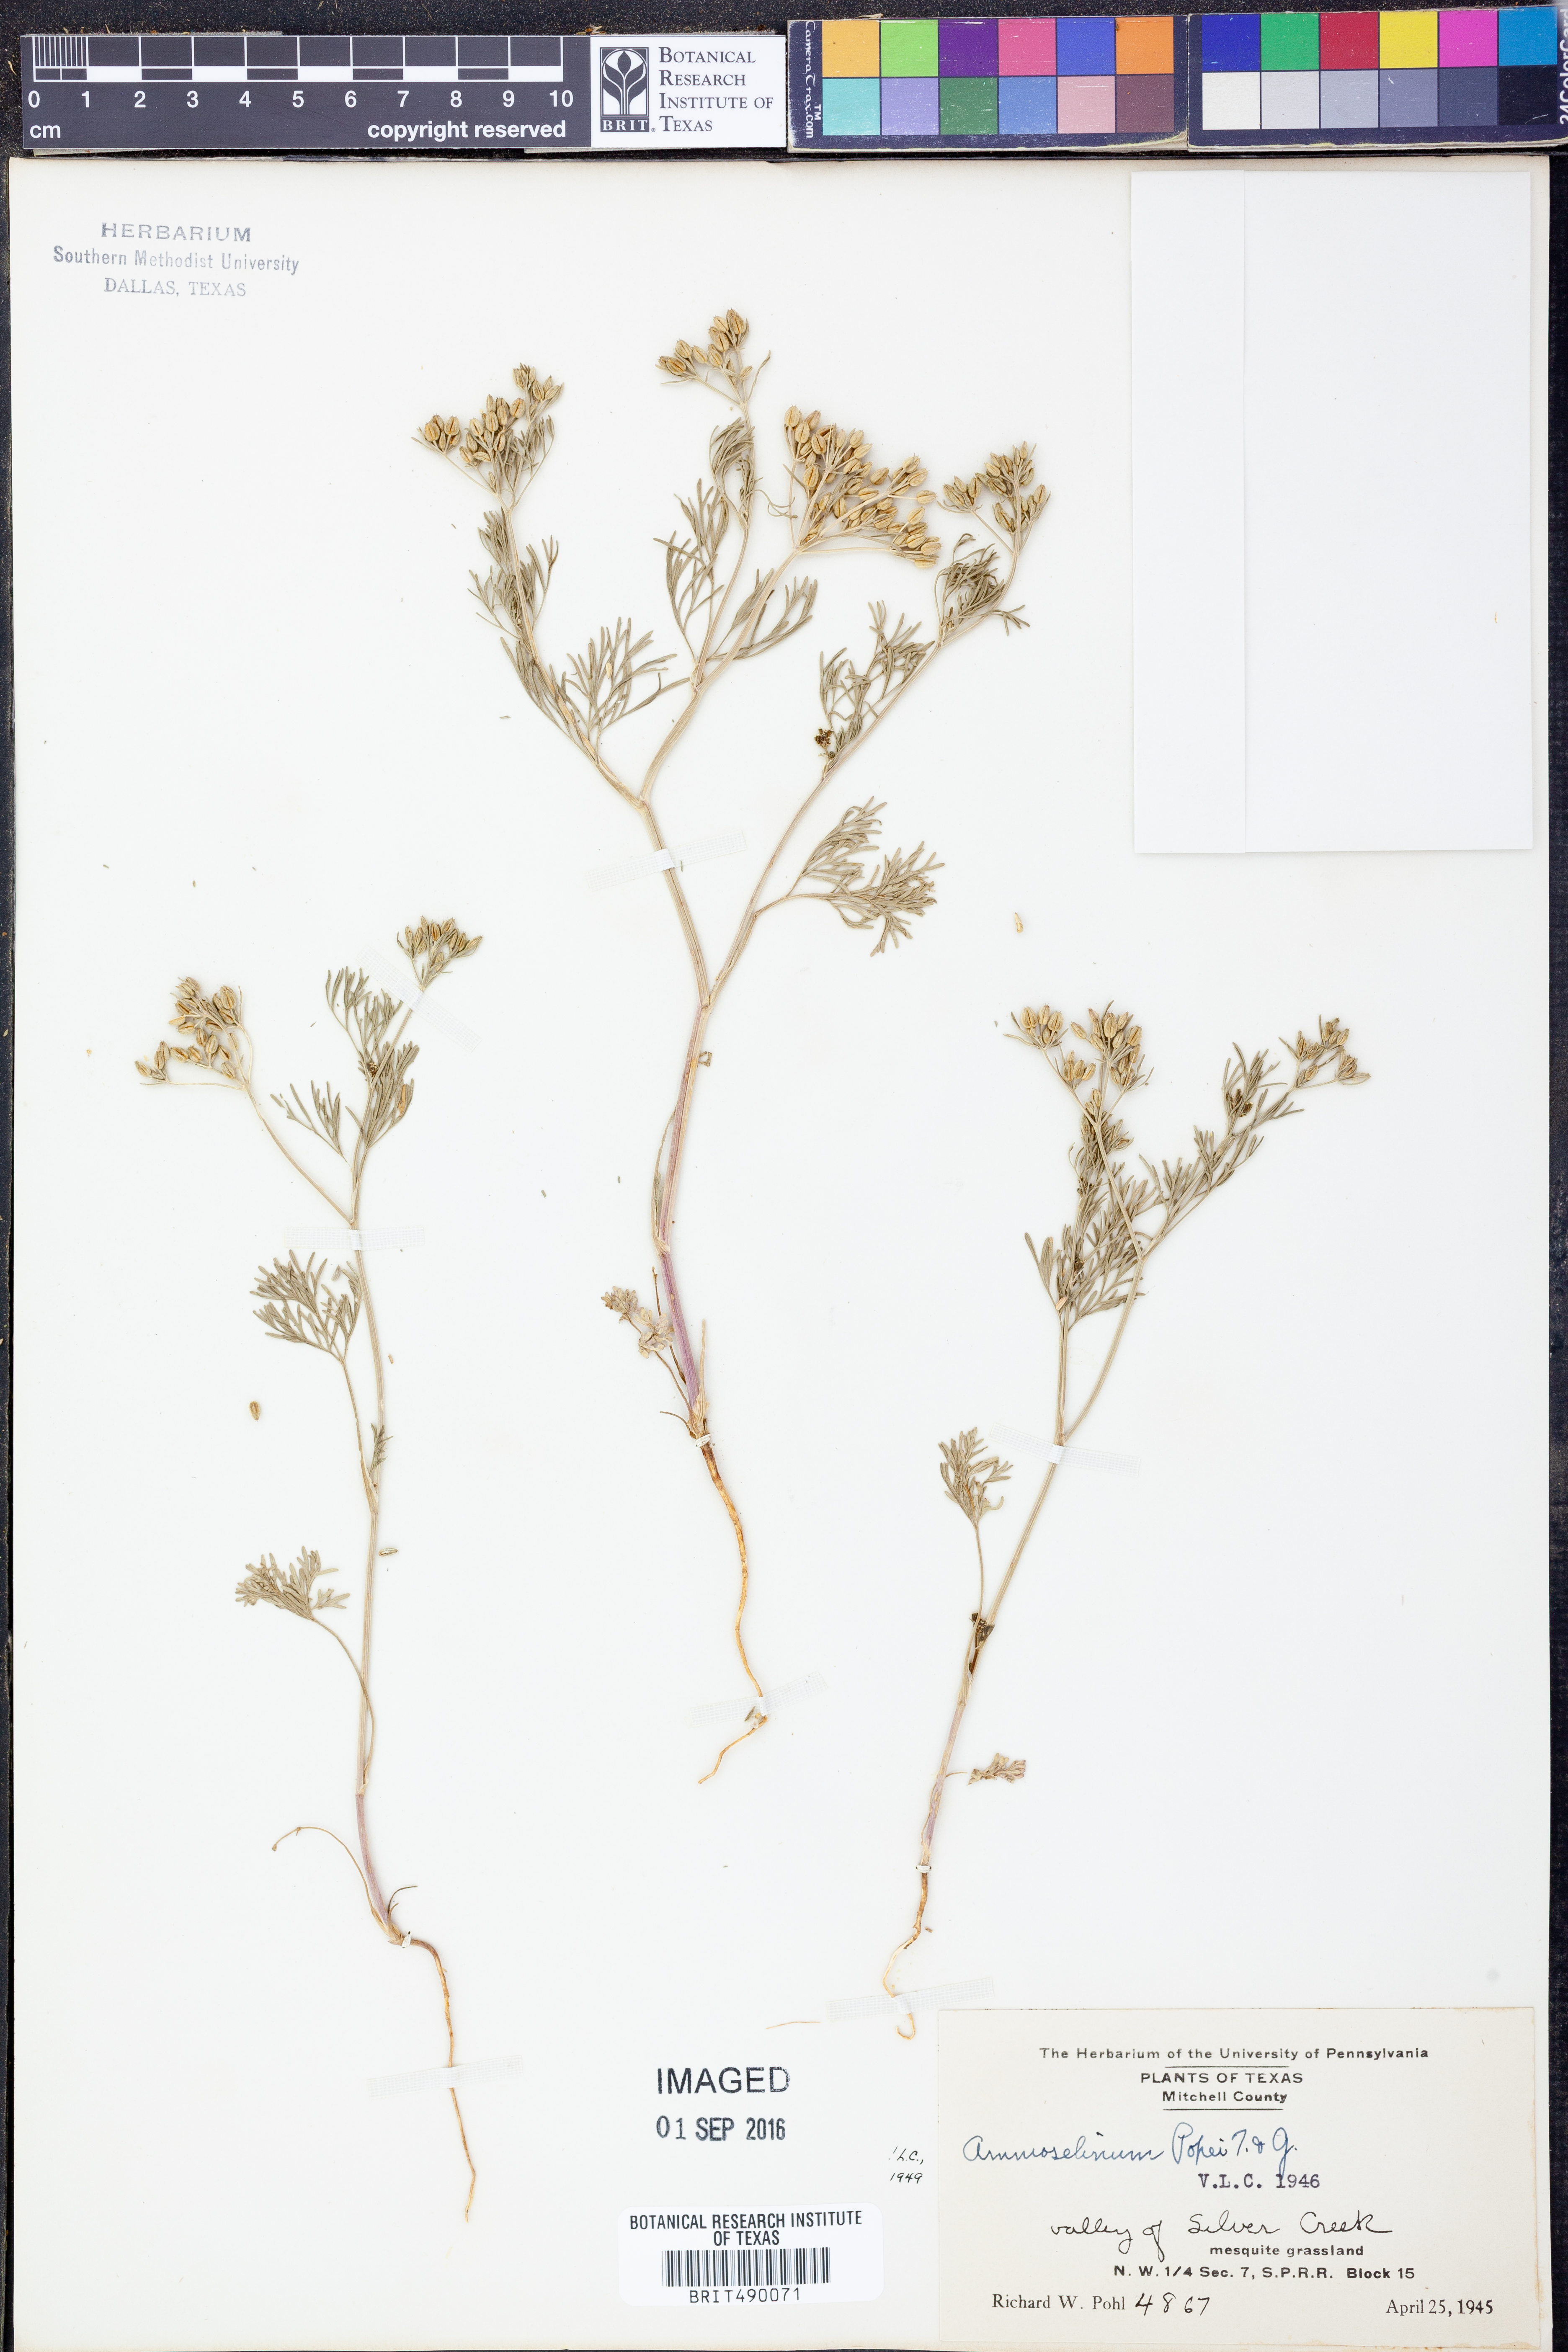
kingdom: Plantae
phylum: Tracheophyta
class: Magnoliopsida
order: Apiales
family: Apiaceae
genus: Ammoselinum
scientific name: Ammoselinum popei
